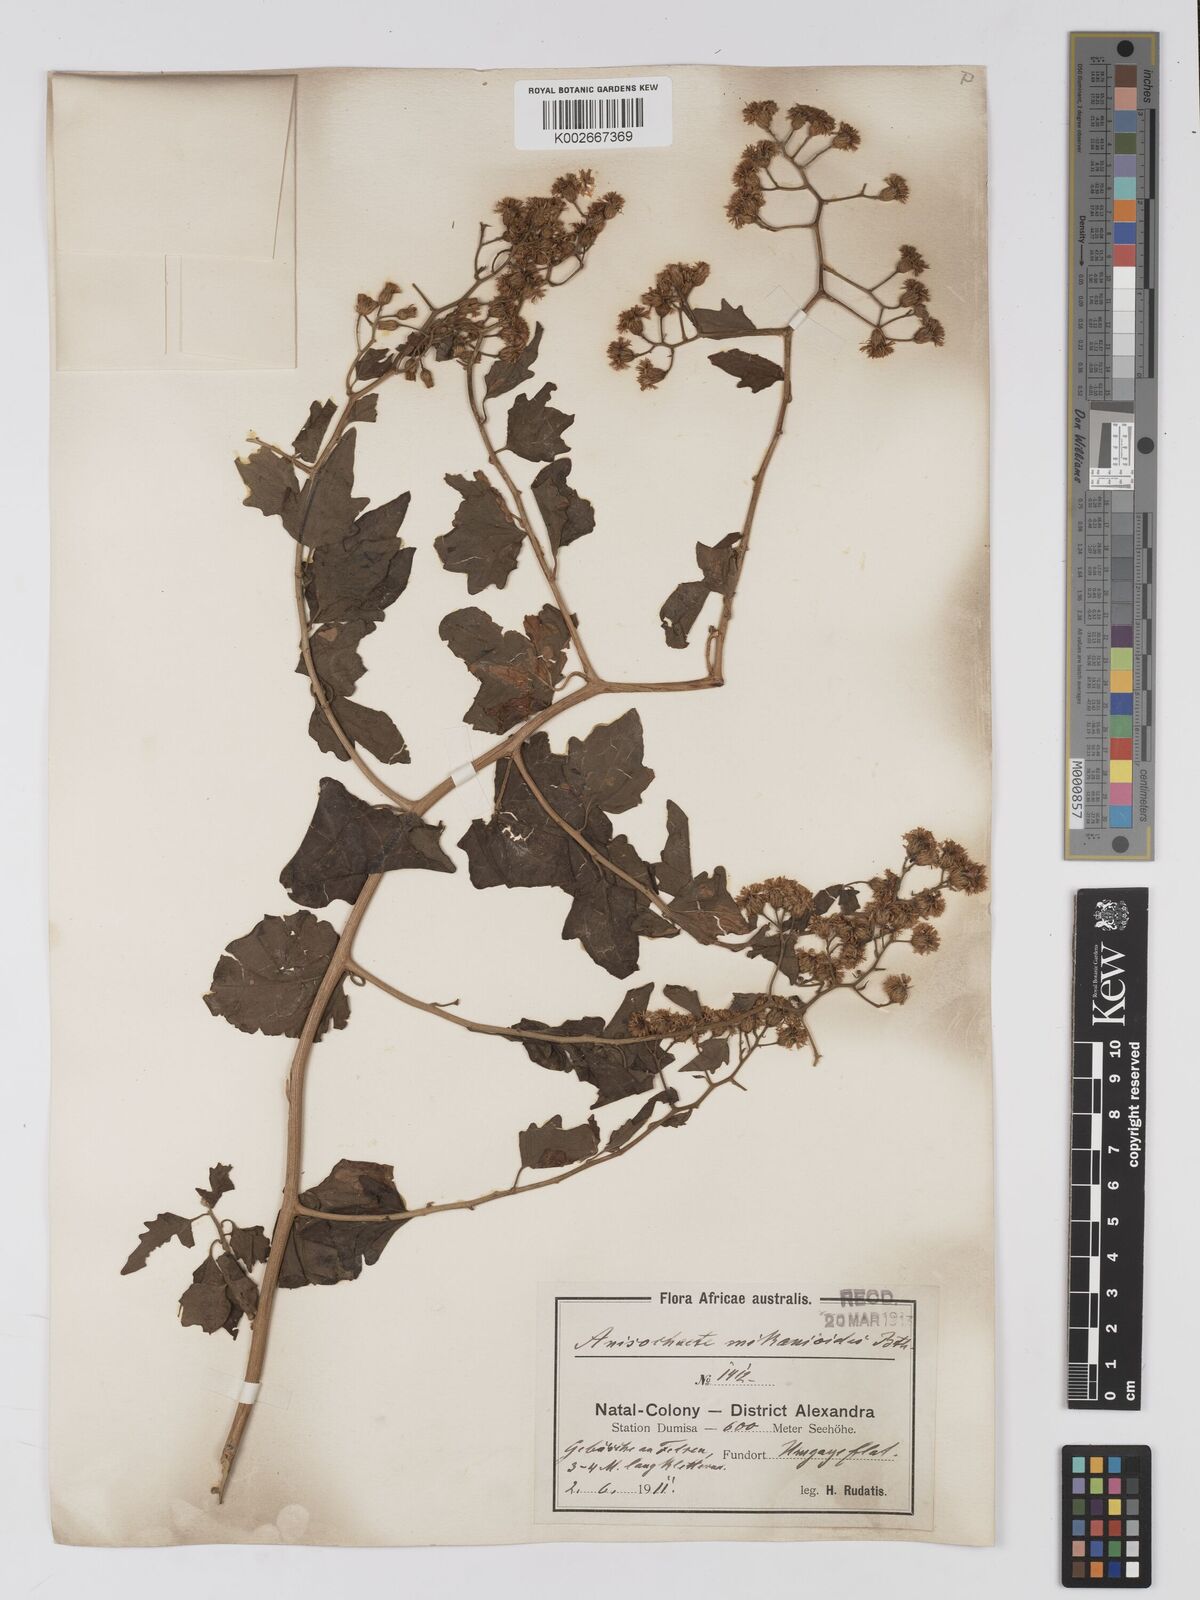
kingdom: Plantae
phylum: Tracheophyta
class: Magnoliopsida
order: Asterales
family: Asteraceae
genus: Anisochaeta
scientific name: Anisochaeta mikanioides
